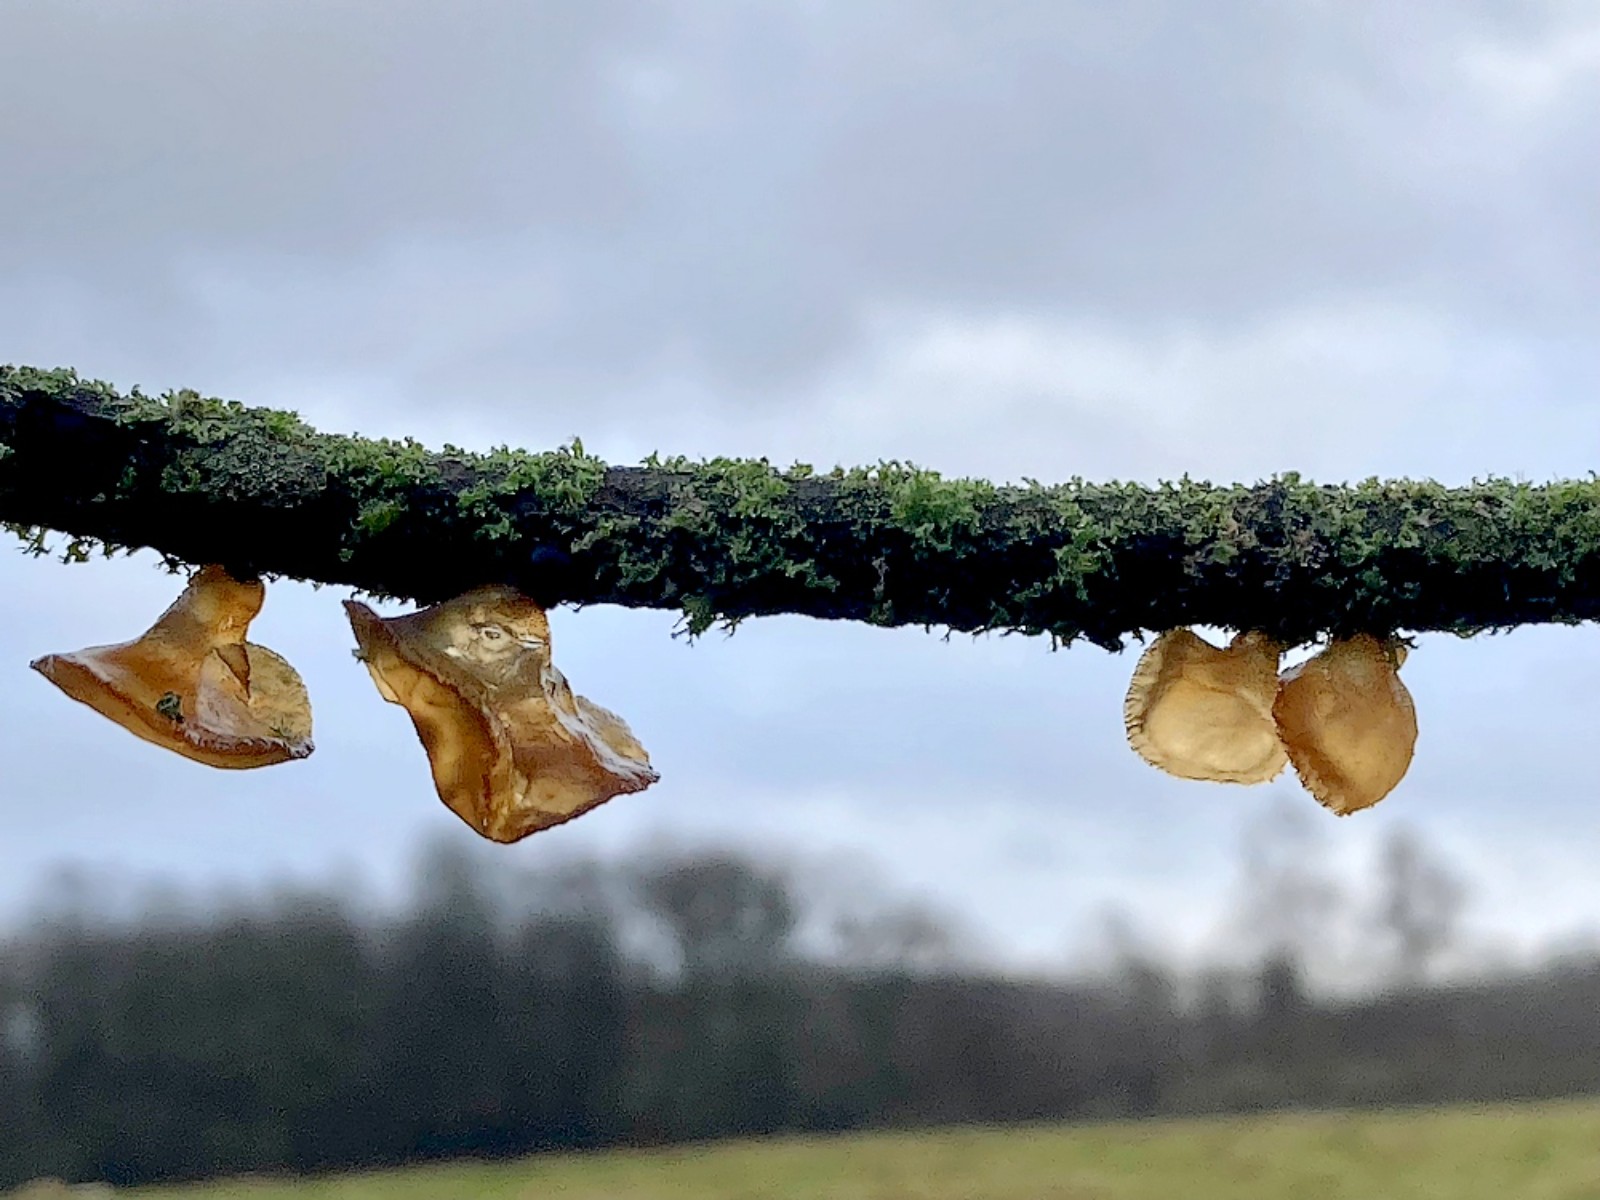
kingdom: Fungi
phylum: Basidiomycota
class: Agaricomycetes
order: Auriculariales
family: Auriculariaceae
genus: Exidia
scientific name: Exidia recisa
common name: pile-bævretop
